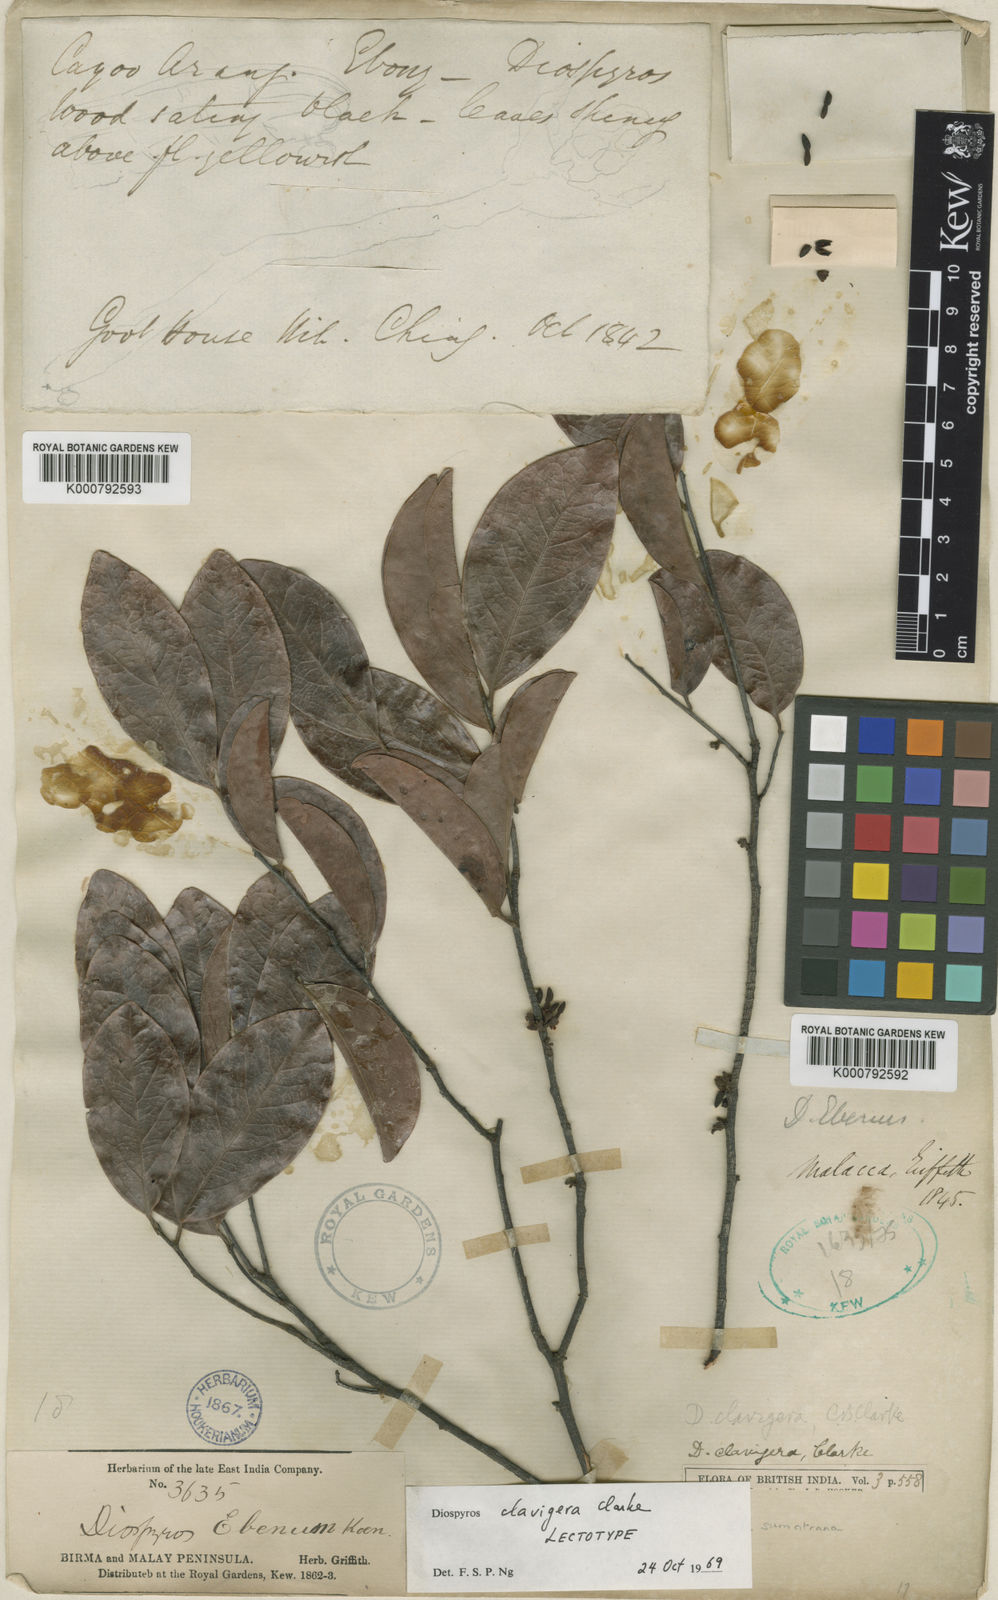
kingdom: Plantae
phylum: Tracheophyta
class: Magnoliopsida
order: Ericales
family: Ebenaceae
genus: Diospyros
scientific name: Diospyros sumatrana
